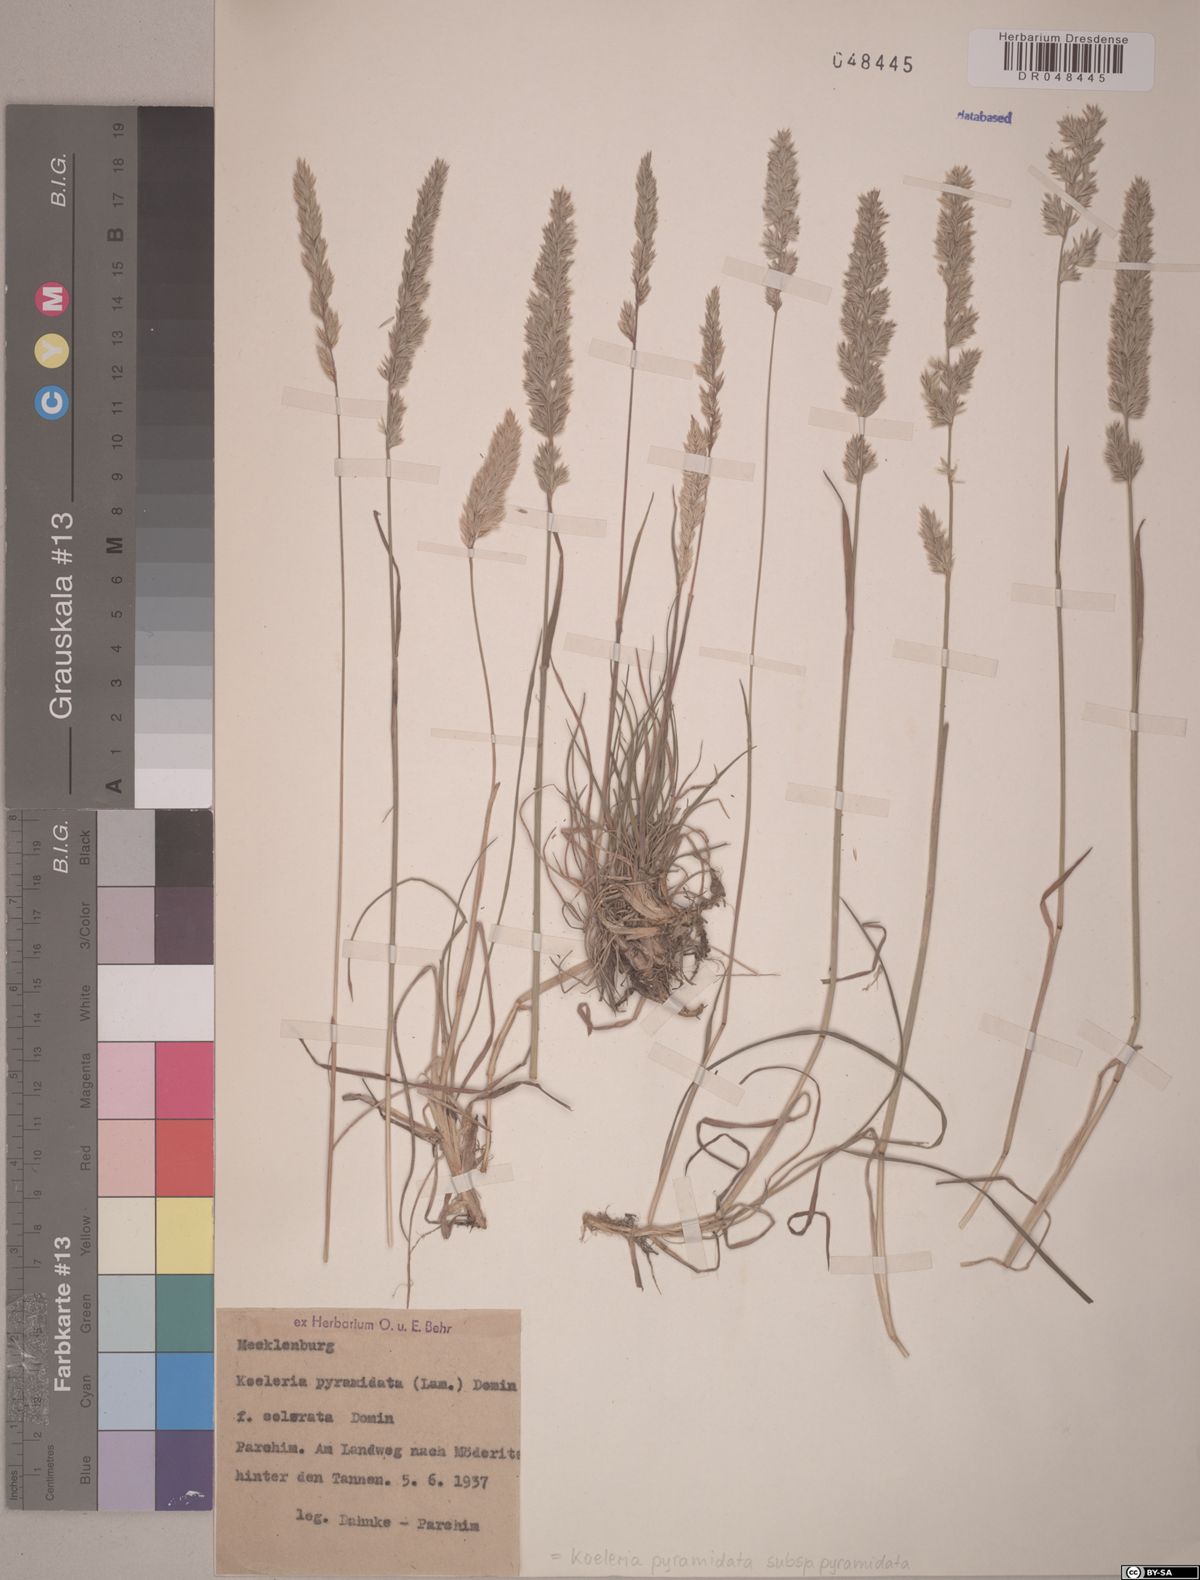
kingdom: Plantae
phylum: Tracheophyta
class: Liliopsida
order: Poales
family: Poaceae
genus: Koeleria
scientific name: Koeleria pyramidata
